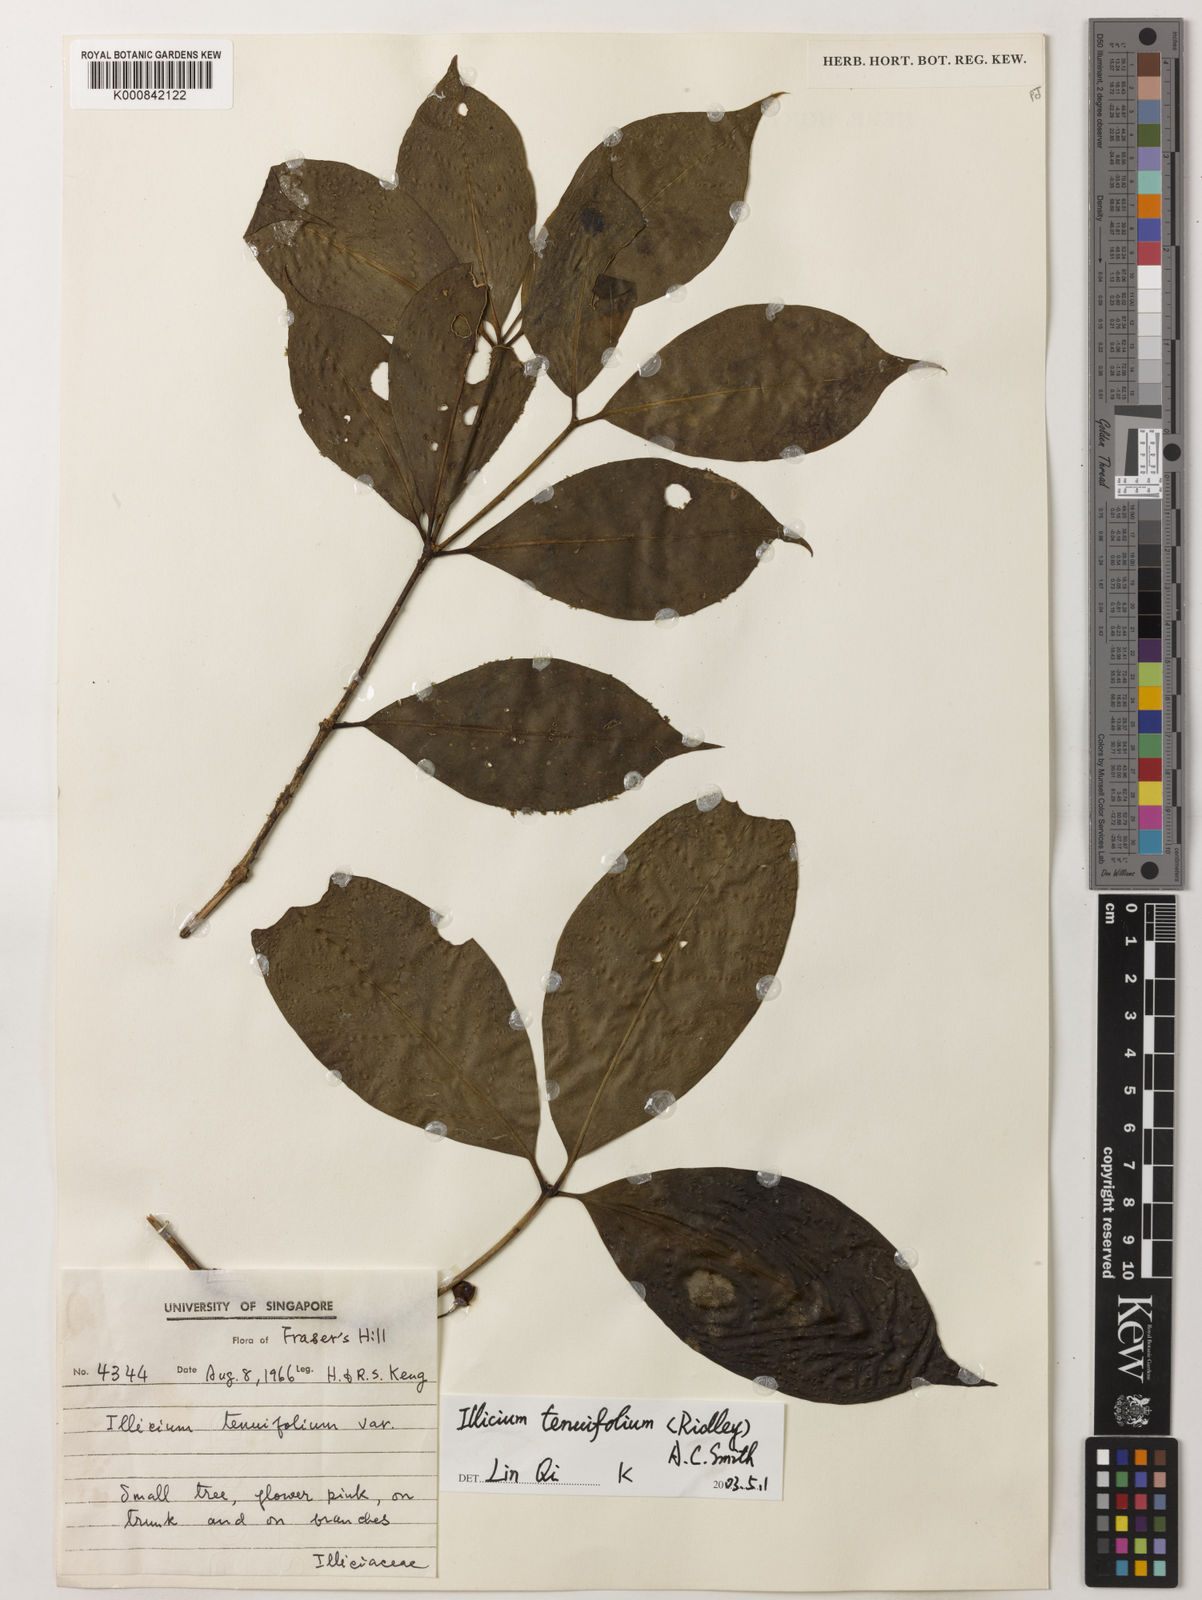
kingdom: Plantae
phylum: Tracheophyta
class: Magnoliopsida
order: Austrobaileyales
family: Schisandraceae
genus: Illicium
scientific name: Illicium tenuifolium
